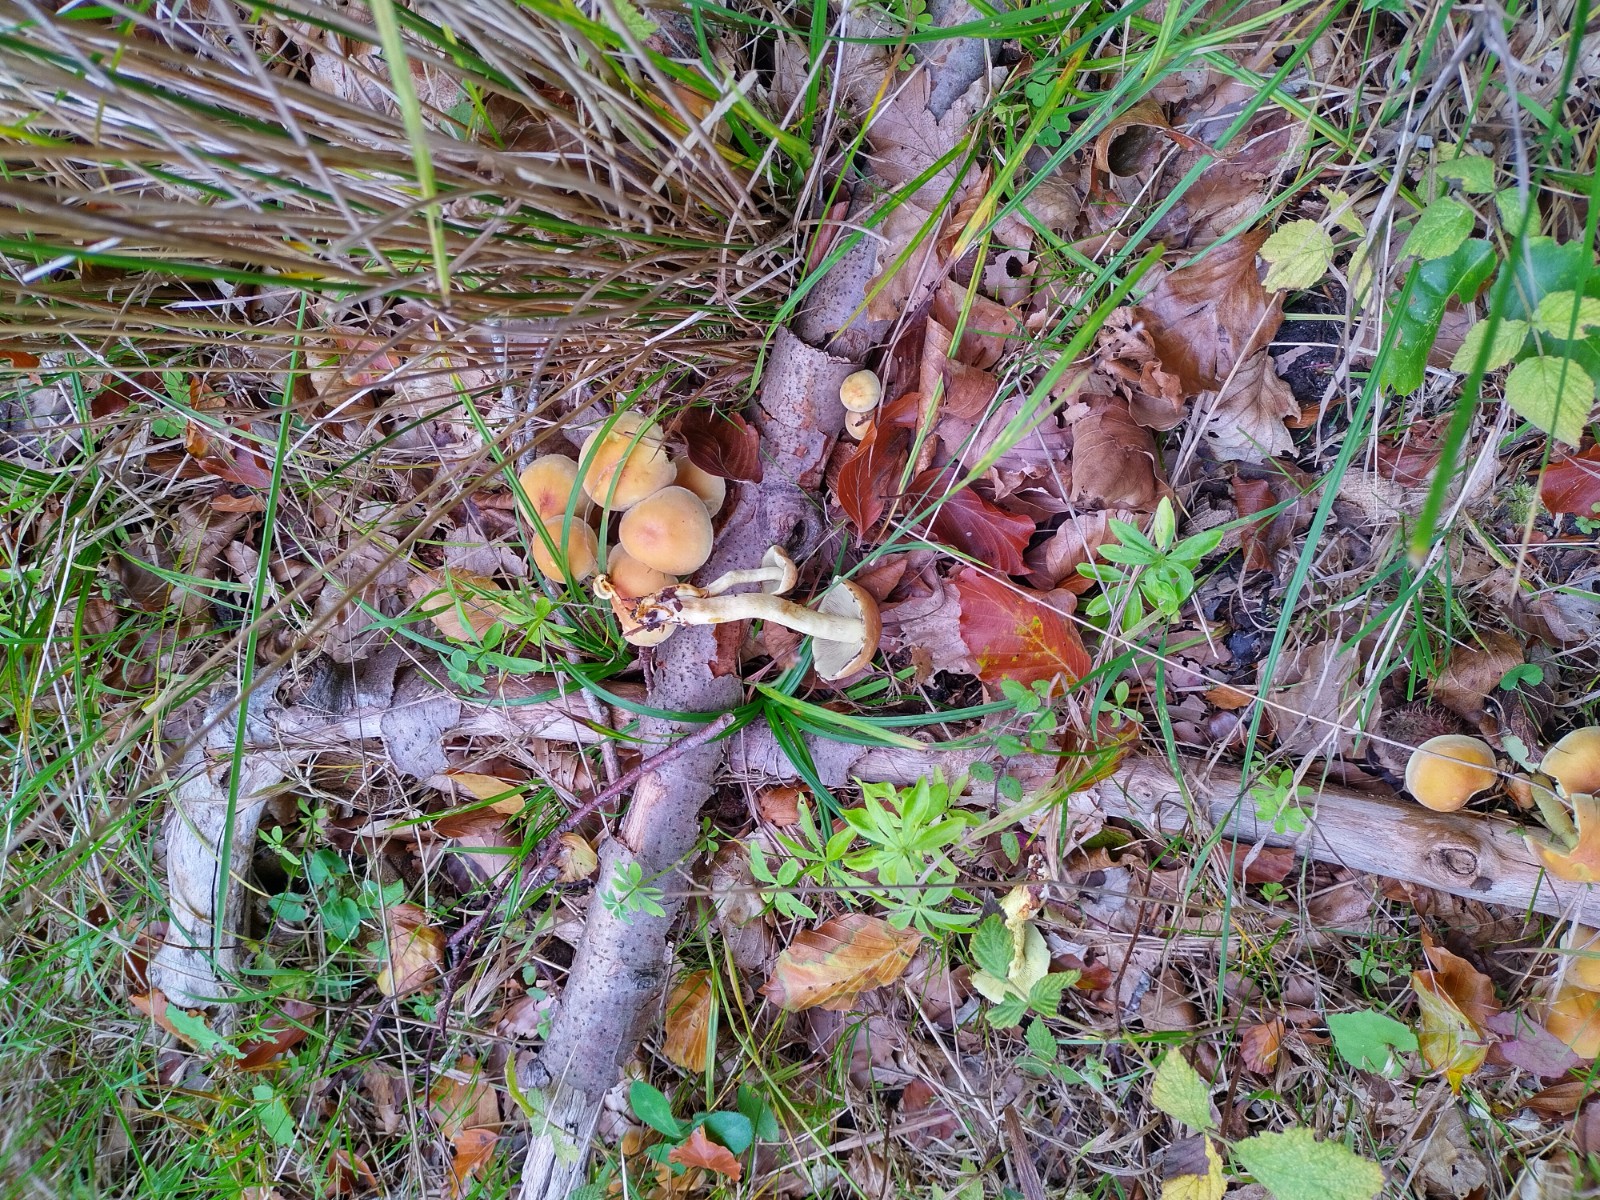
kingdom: Fungi
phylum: Basidiomycota
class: Agaricomycetes
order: Agaricales
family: Strophariaceae
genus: Hypholoma
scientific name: Hypholoma fasciculare
